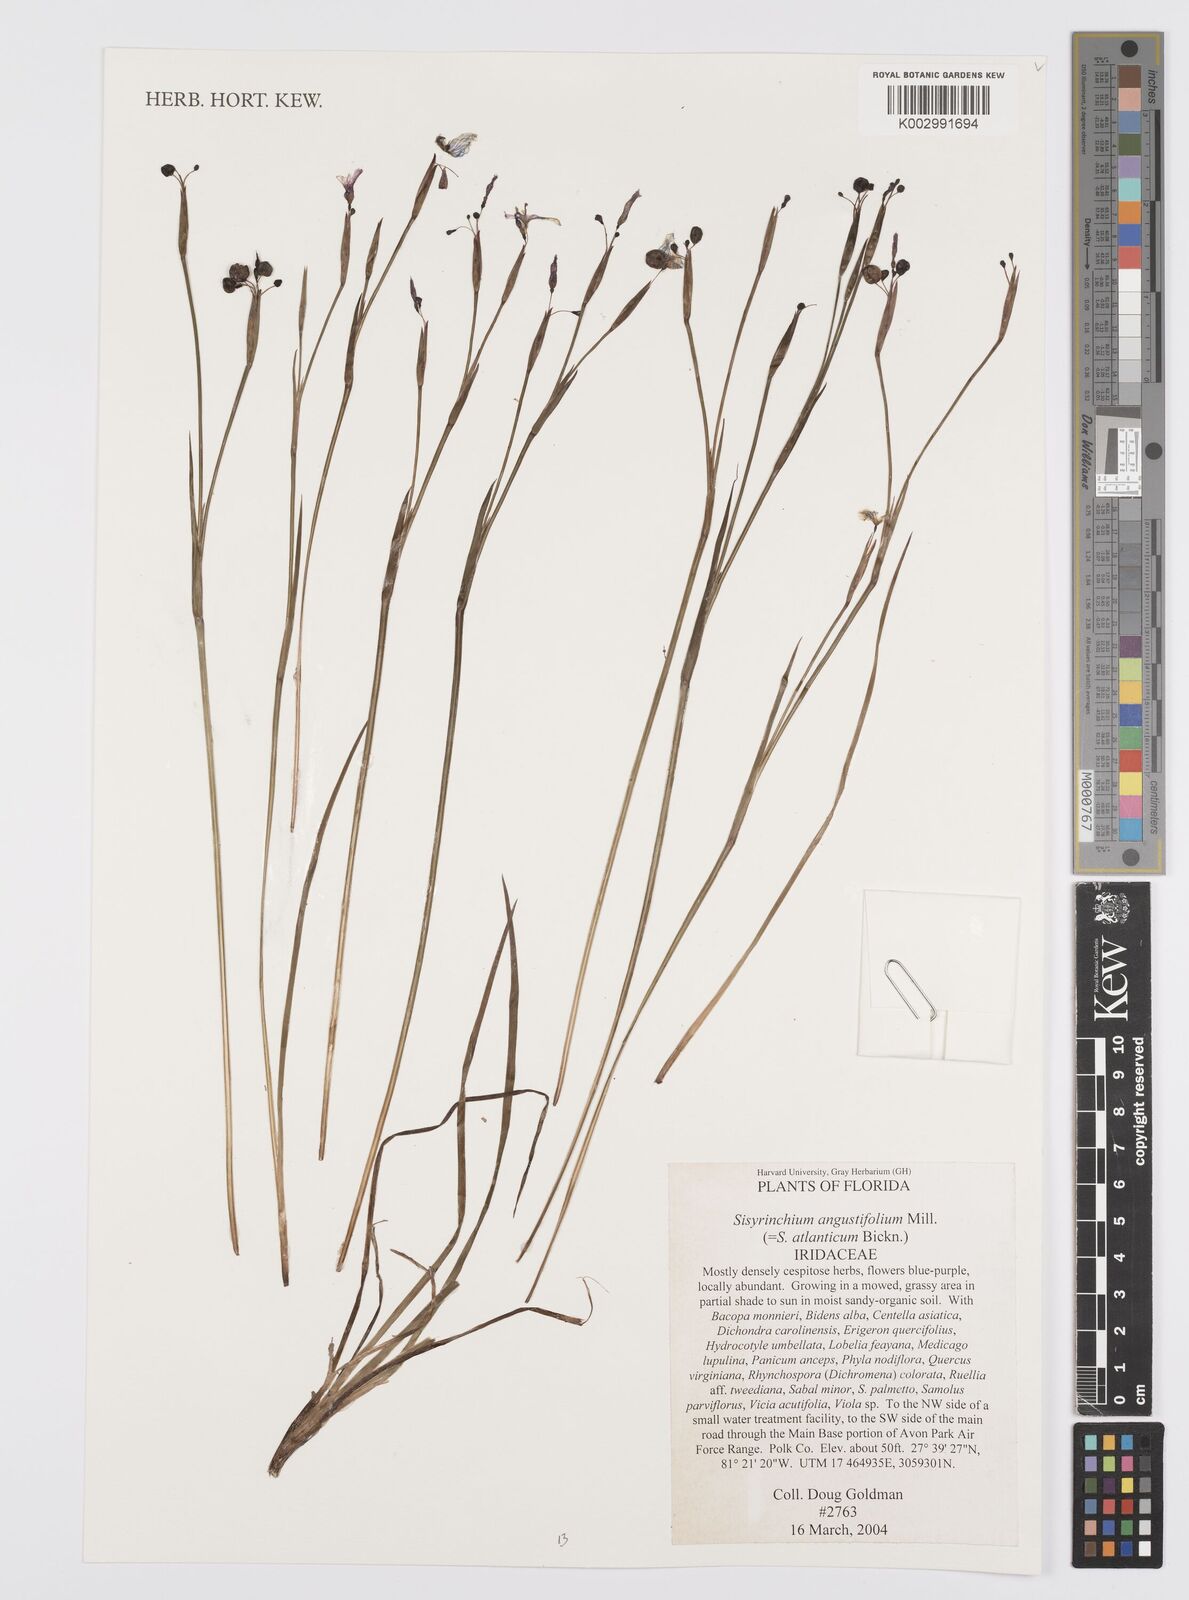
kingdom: Plantae
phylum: Tracheophyta
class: Liliopsida
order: Asparagales
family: Iridaceae
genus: Sisyrinchium
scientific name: Sisyrinchium angustifolium
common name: Narrow-leaf blue-eyed-grass
